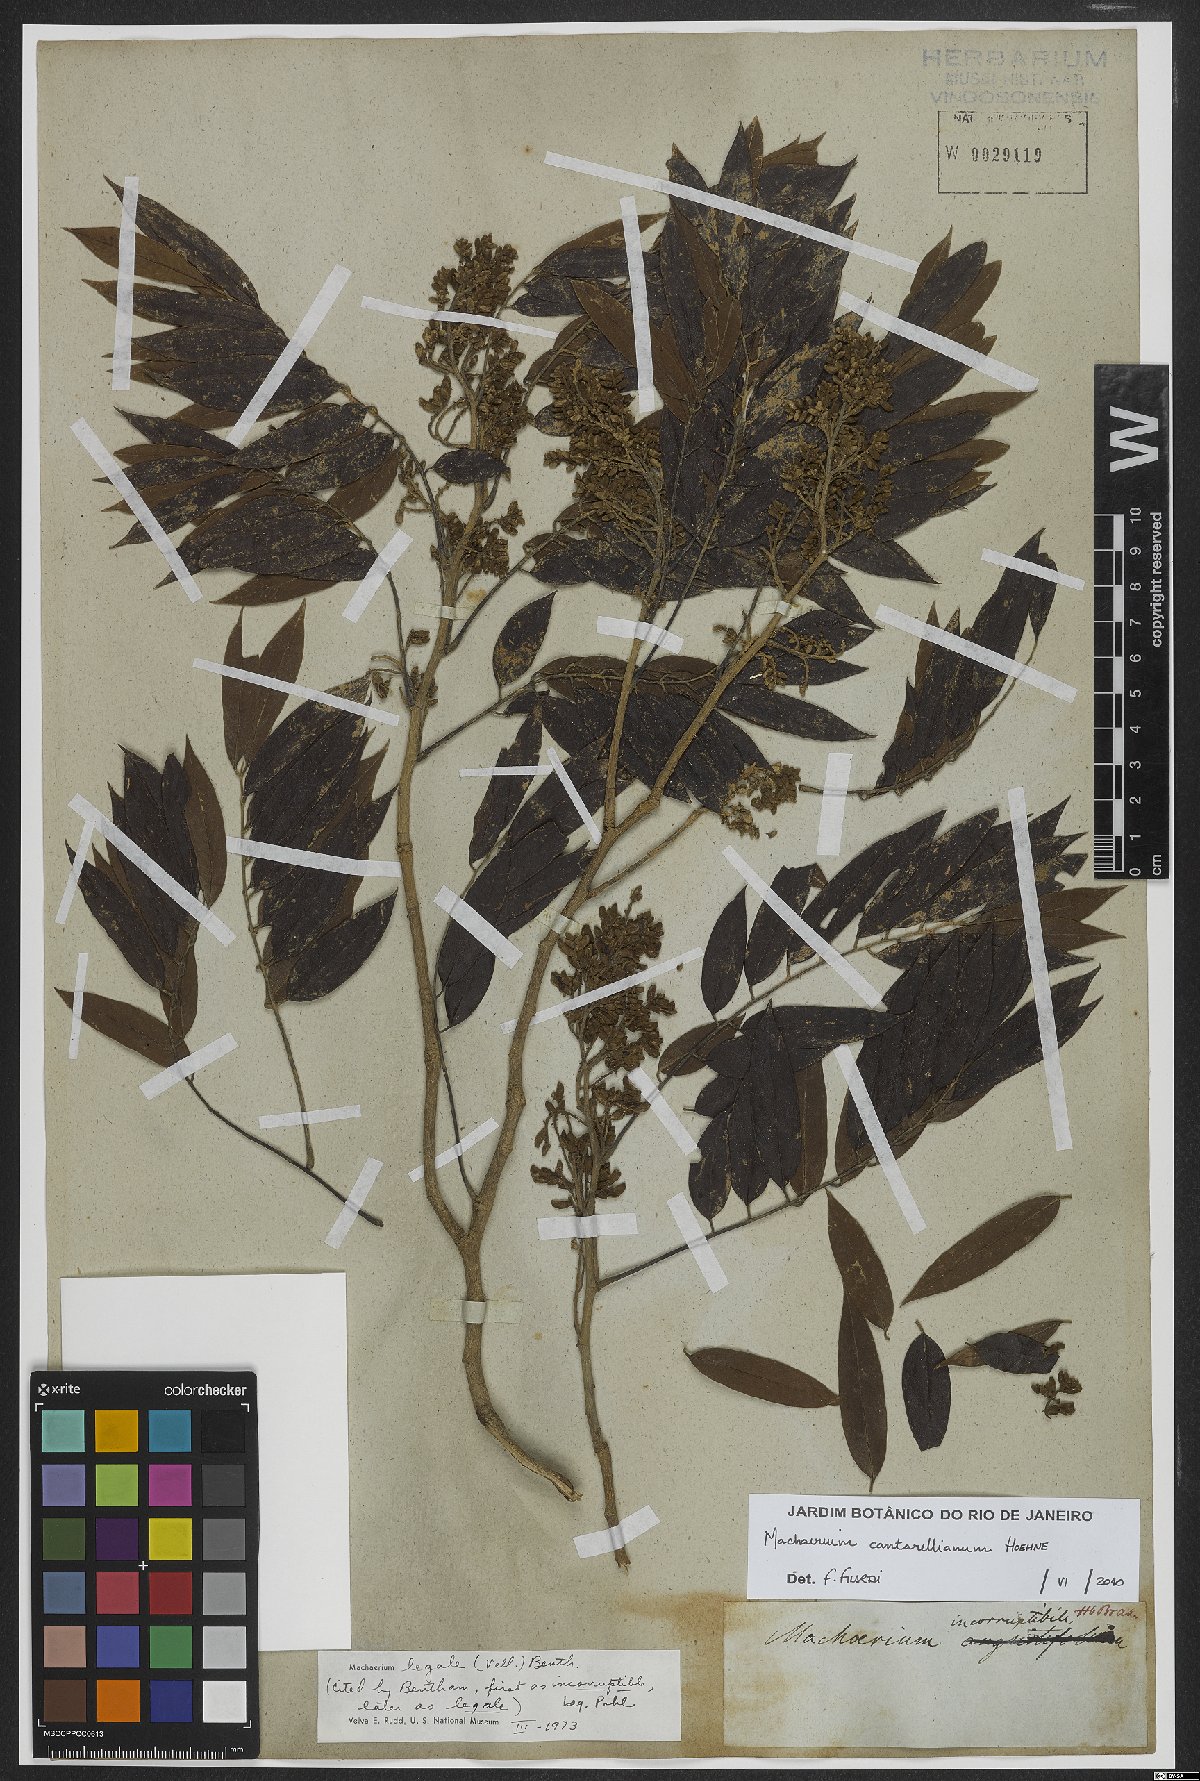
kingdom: Plantae
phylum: Tracheophyta
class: Magnoliopsida
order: Fabales
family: Fabaceae
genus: Machaerium
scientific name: Machaerium cantarellianum
